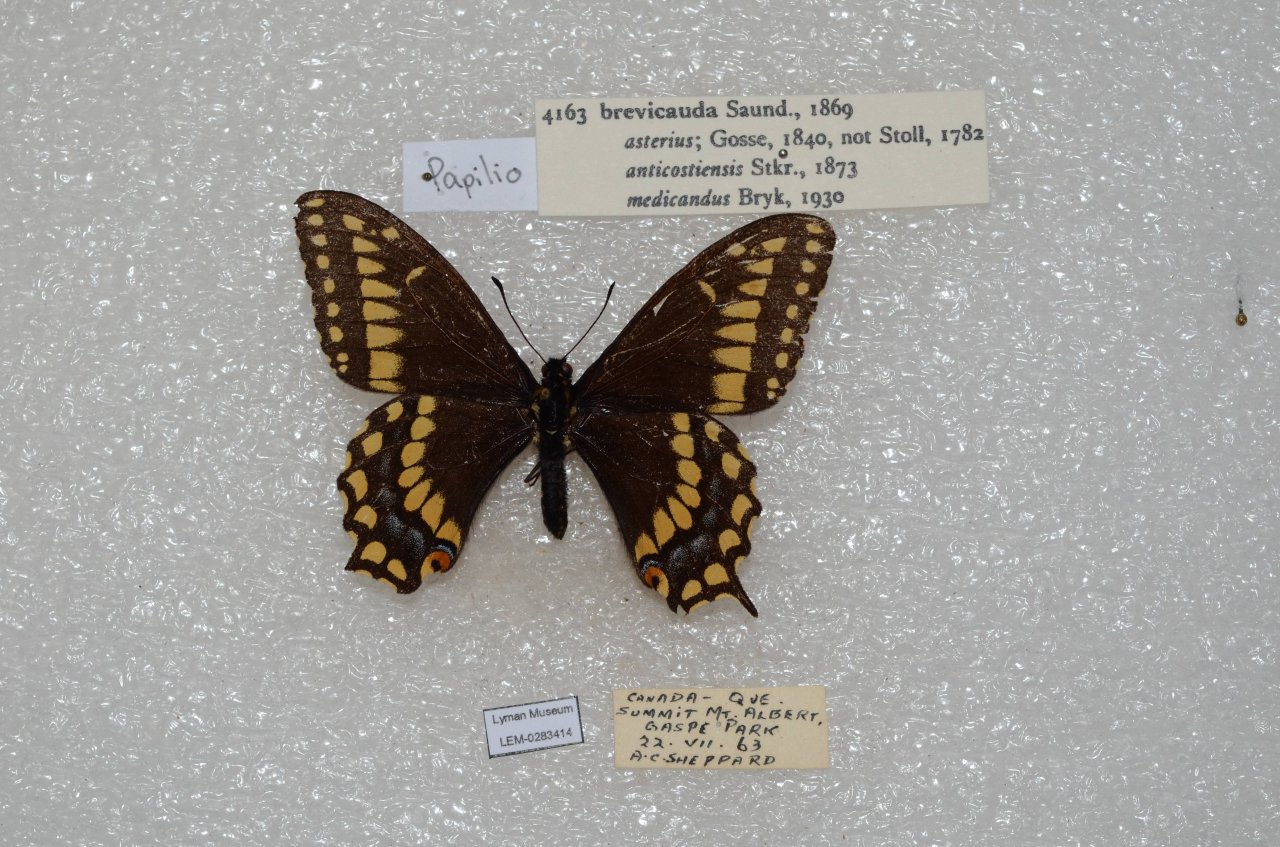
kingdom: Animalia
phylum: Arthropoda
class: Insecta
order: Lepidoptera
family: Papilionidae
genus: Papilio
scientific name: Papilio brevicauda
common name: Short-tailed Swallowtail
